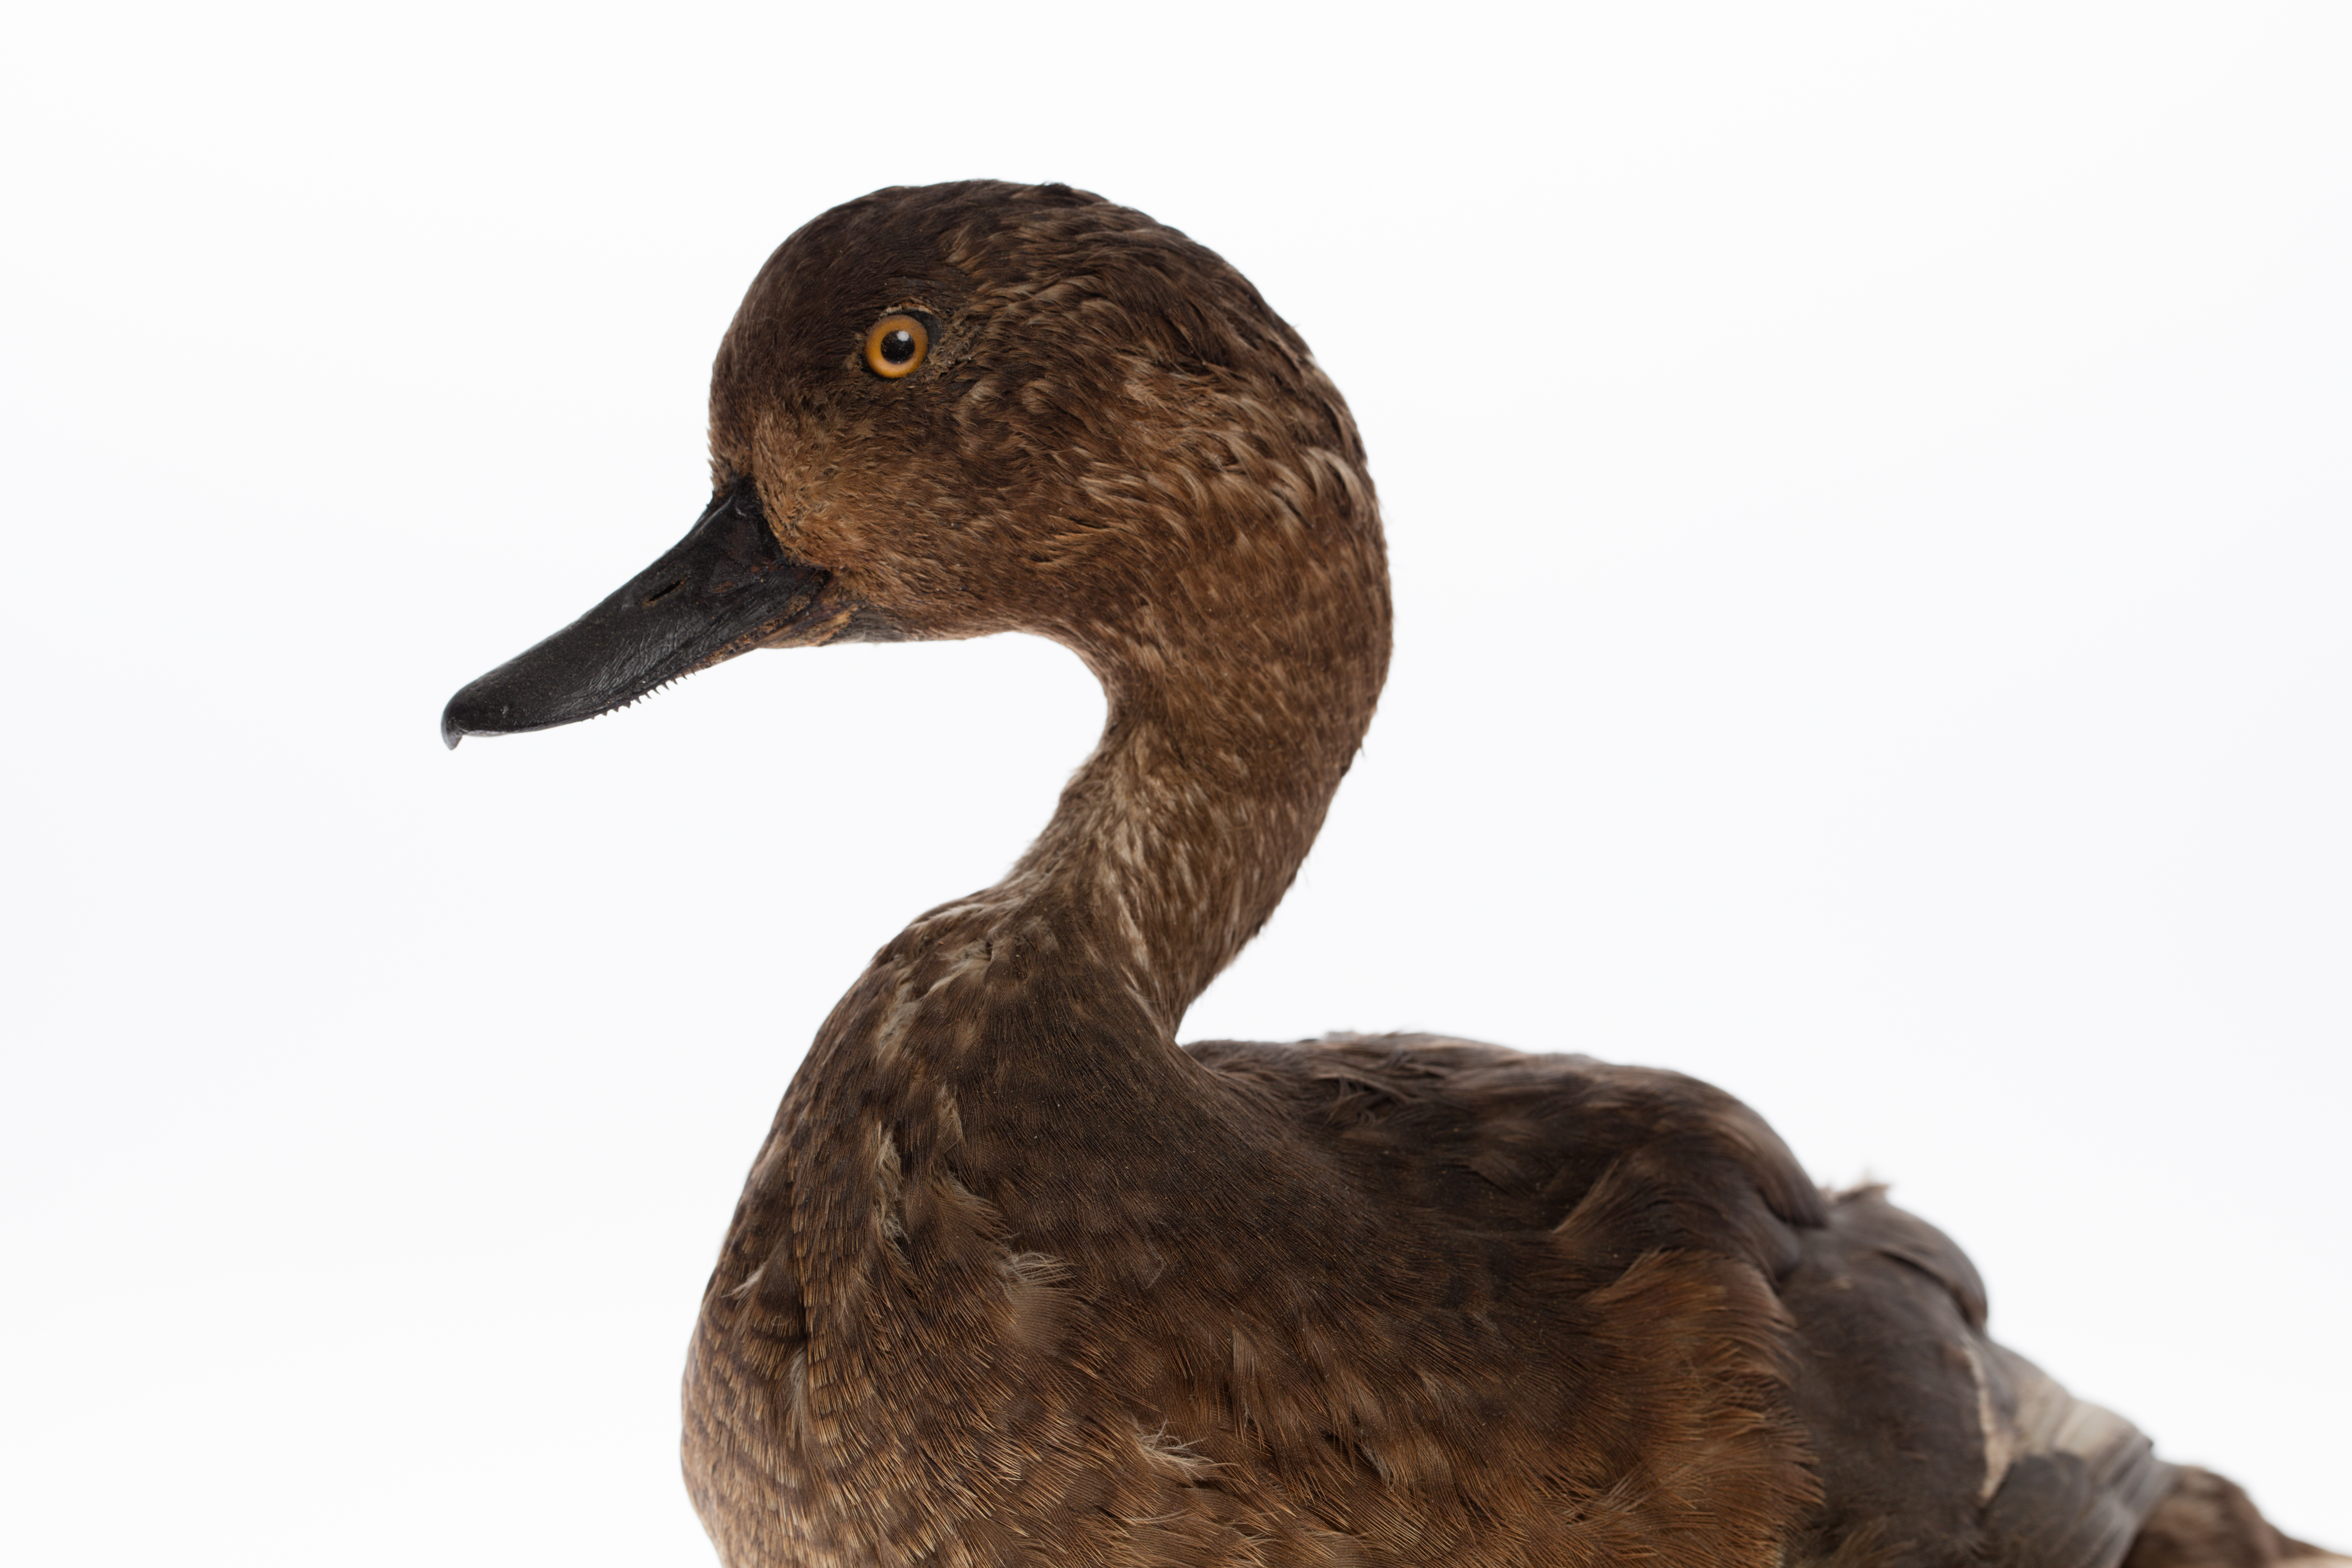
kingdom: Animalia
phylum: Chordata
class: Aves
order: Anseriformes
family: Anatidae
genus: Aythya
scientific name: Aythya novaeseelandiae
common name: New zealand scaup
